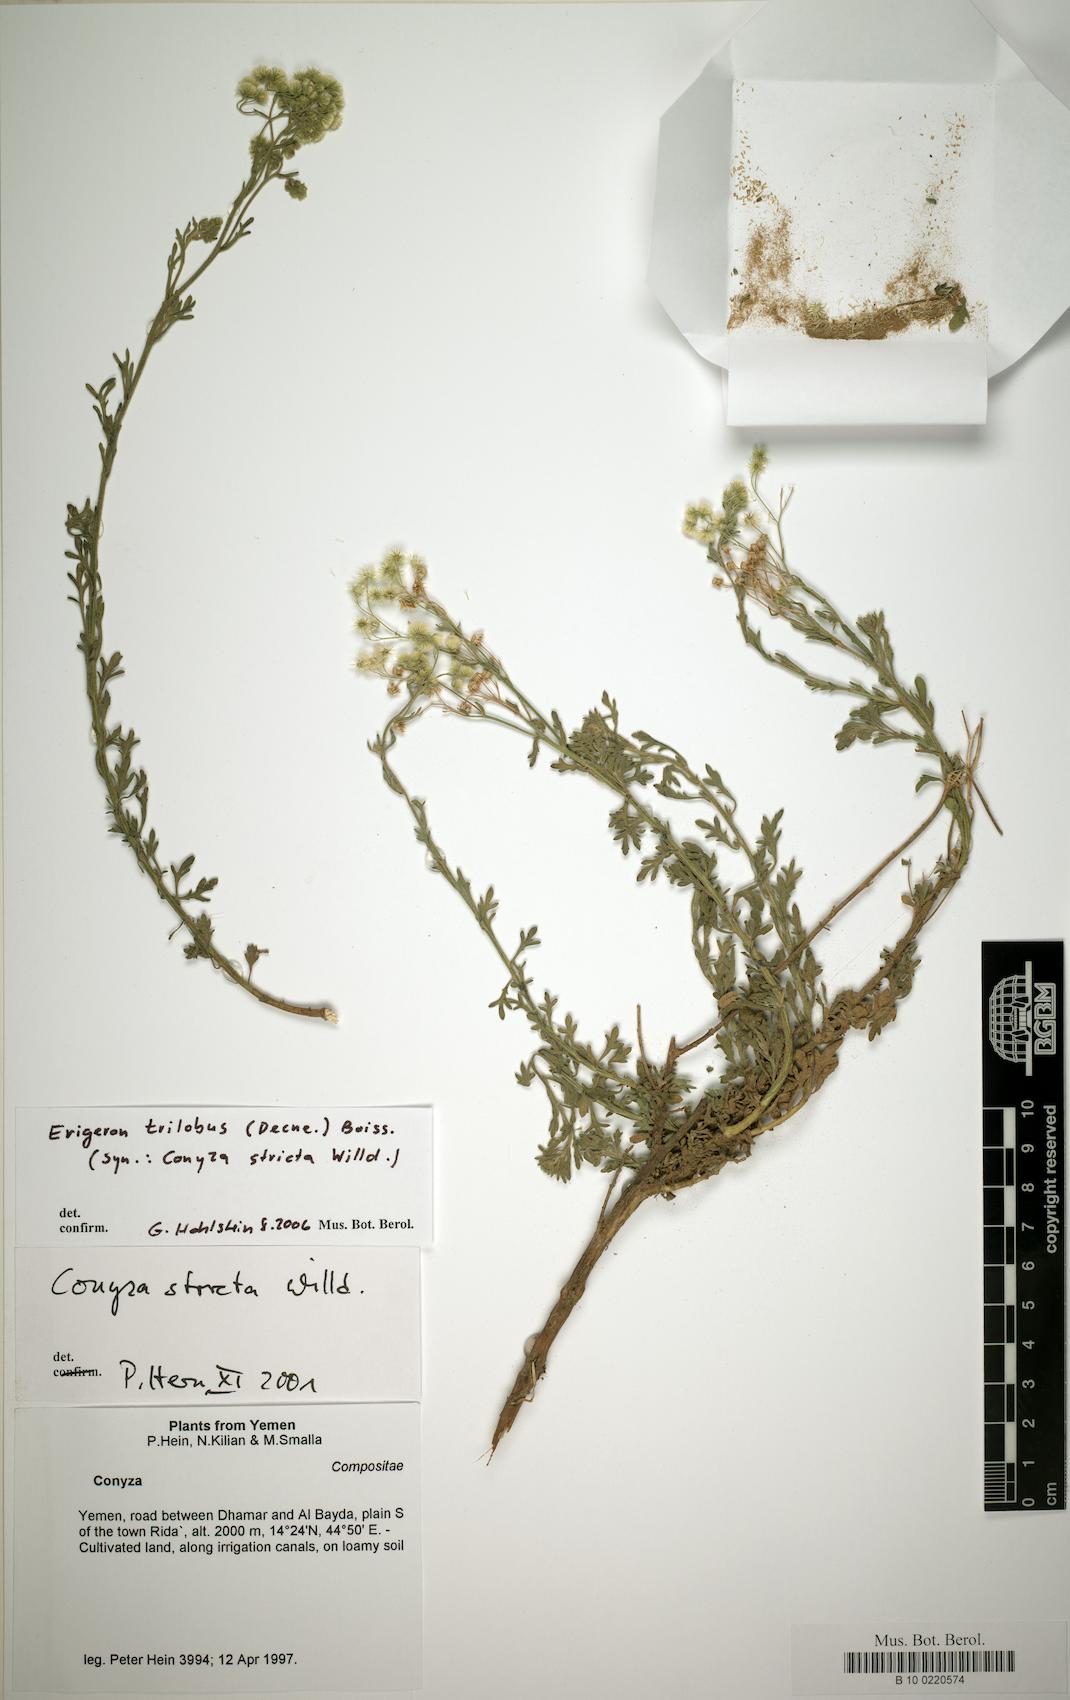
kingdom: Plantae
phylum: Tracheophyta
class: Magnoliopsida
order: Caryophyllales
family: Caryophyllaceae
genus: Stellaria
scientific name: Stellaria apetala
